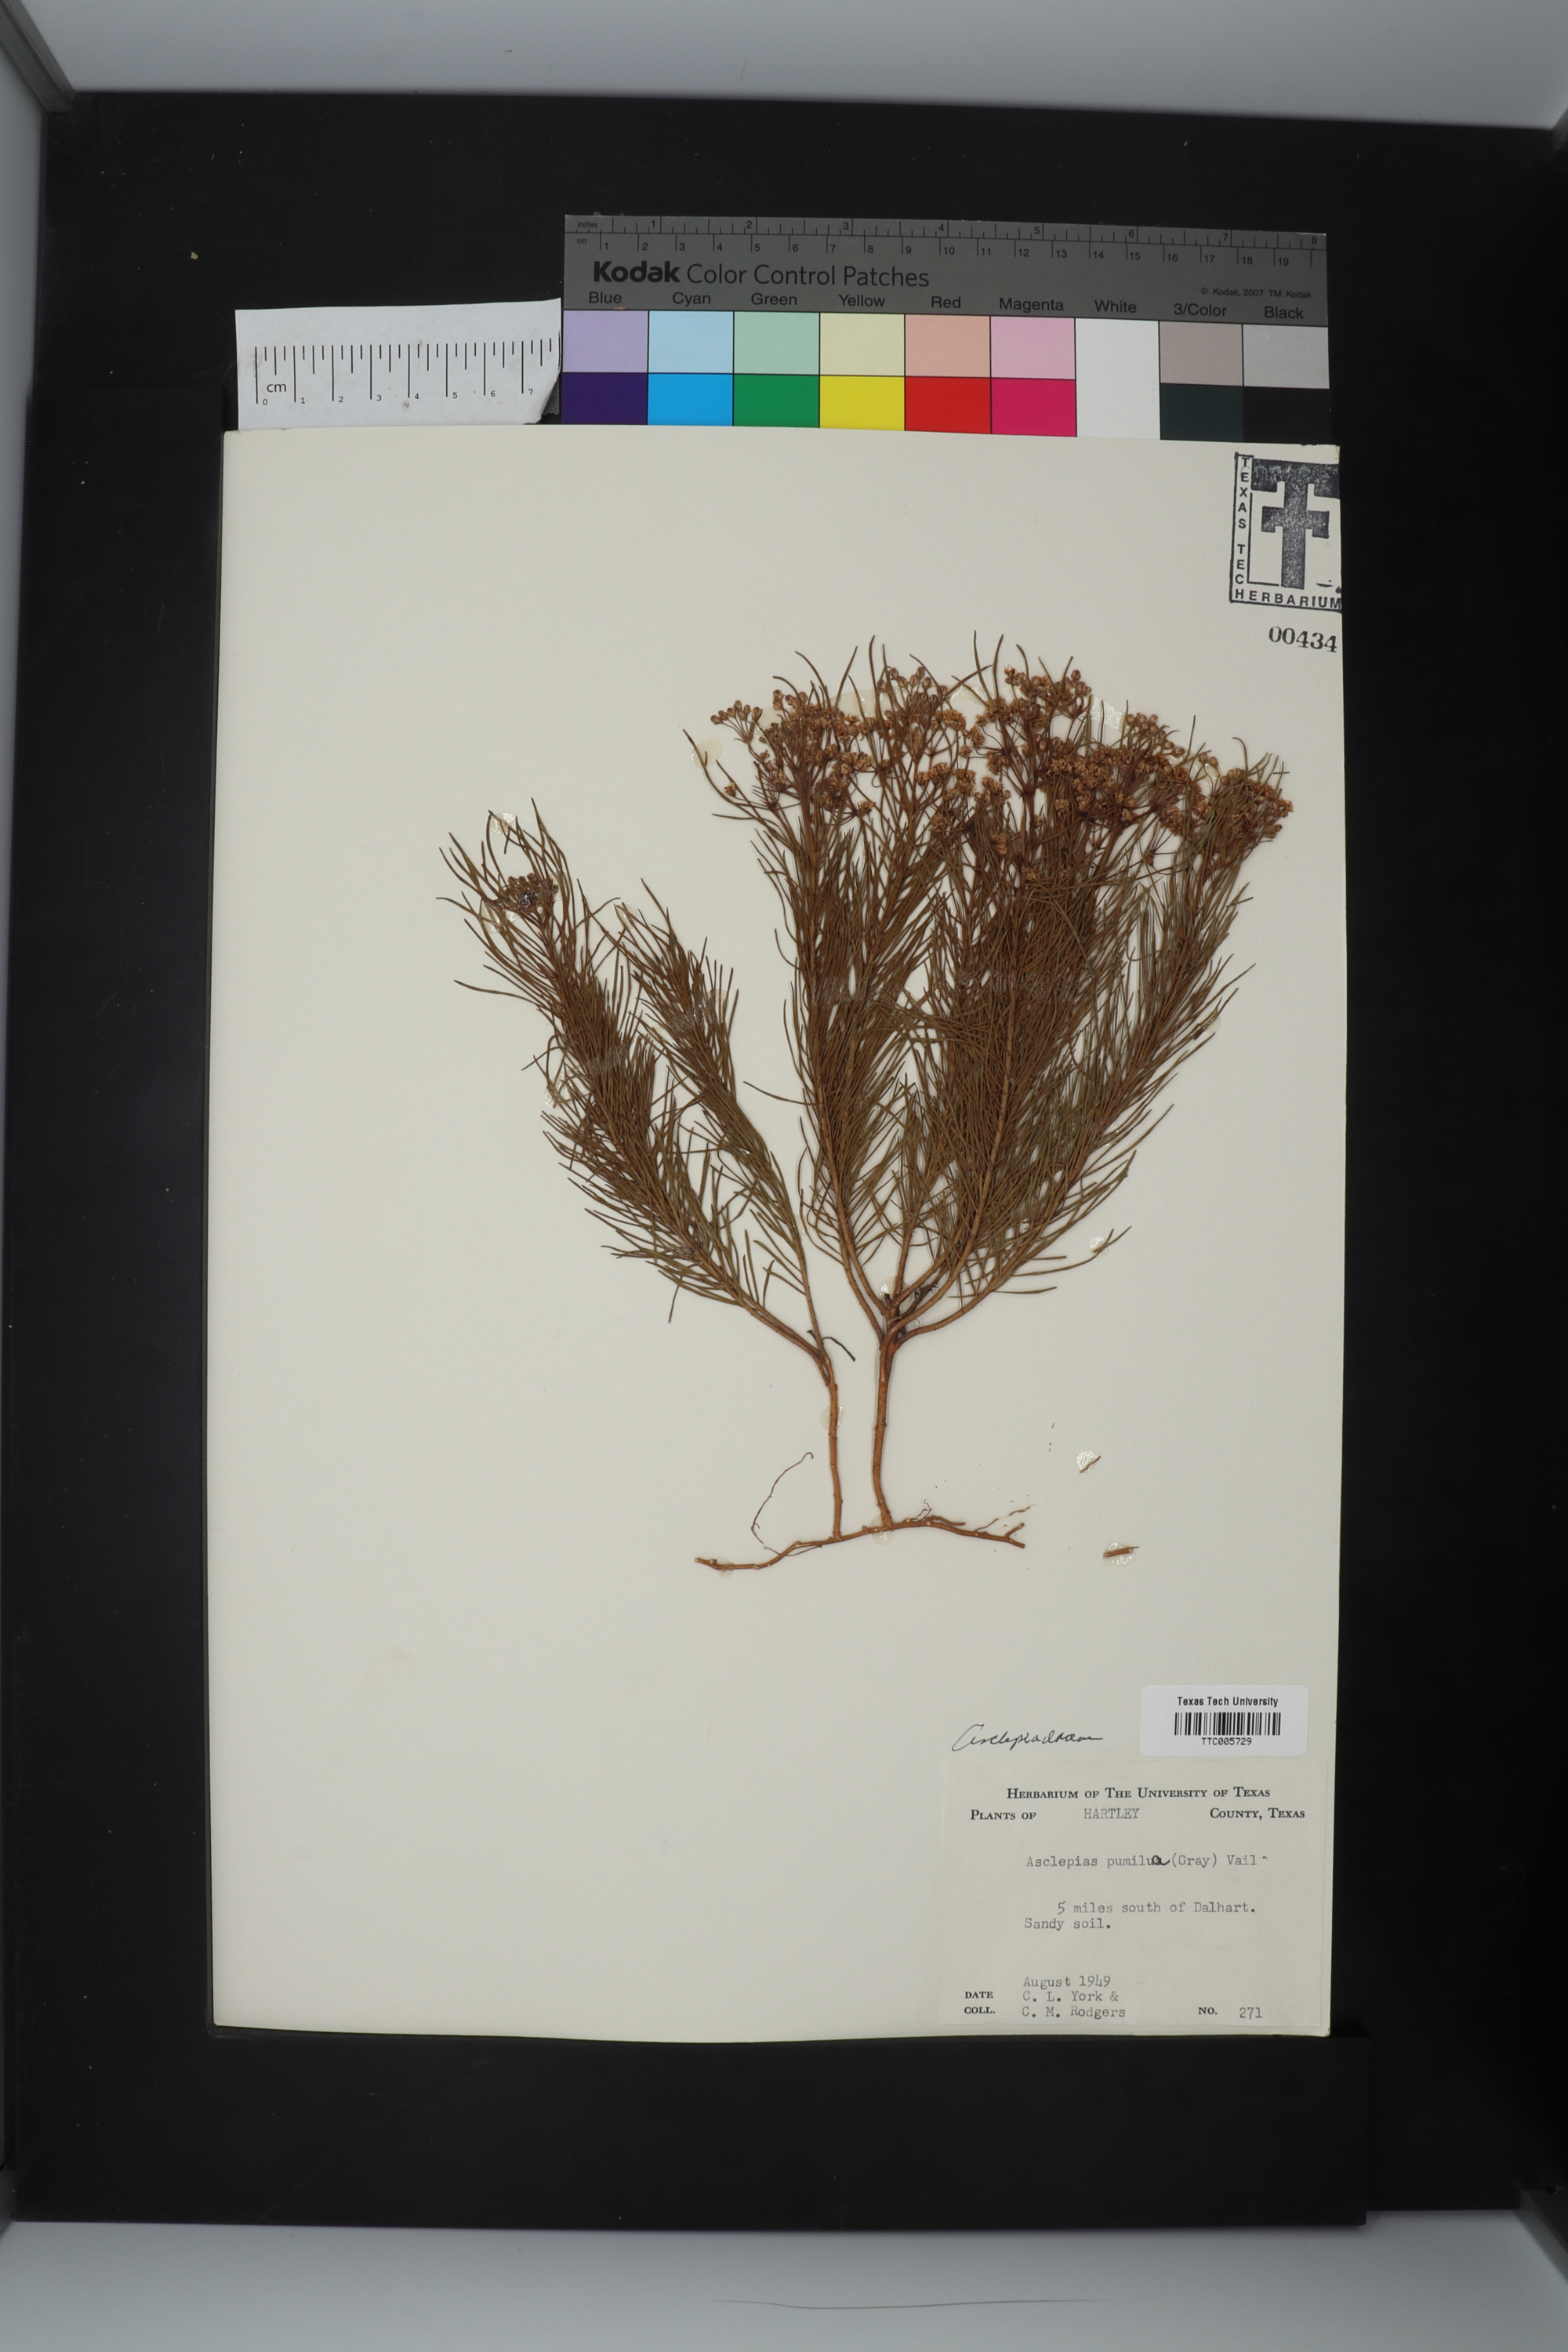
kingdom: Plantae
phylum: Tracheophyta
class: Magnoliopsida
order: Gentianales
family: Apocynaceae
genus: Asclepias
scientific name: Asclepias pumila
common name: Dwarf milkweed
